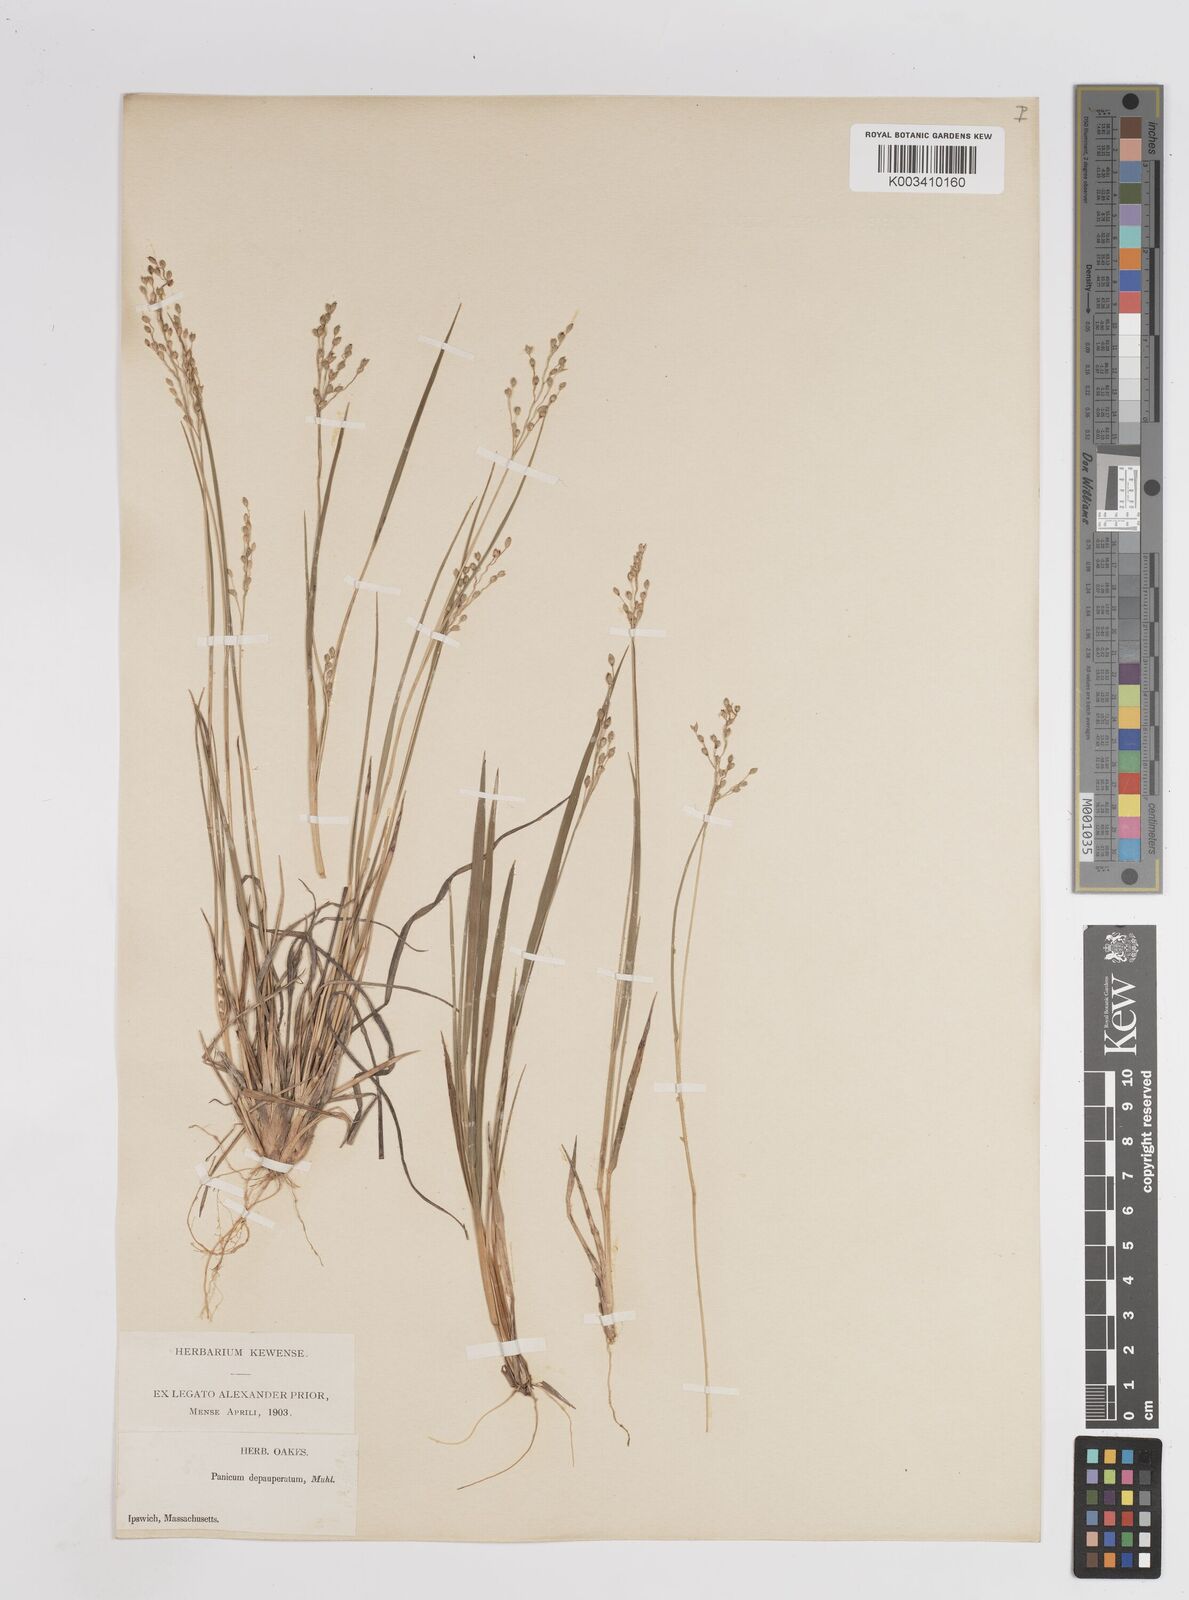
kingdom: Plantae
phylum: Tracheophyta
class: Liliopsida
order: Poales
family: Poaceae
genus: Dichanthelium
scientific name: Dichanthelium depauperatum
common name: Depauperate panicgrass
